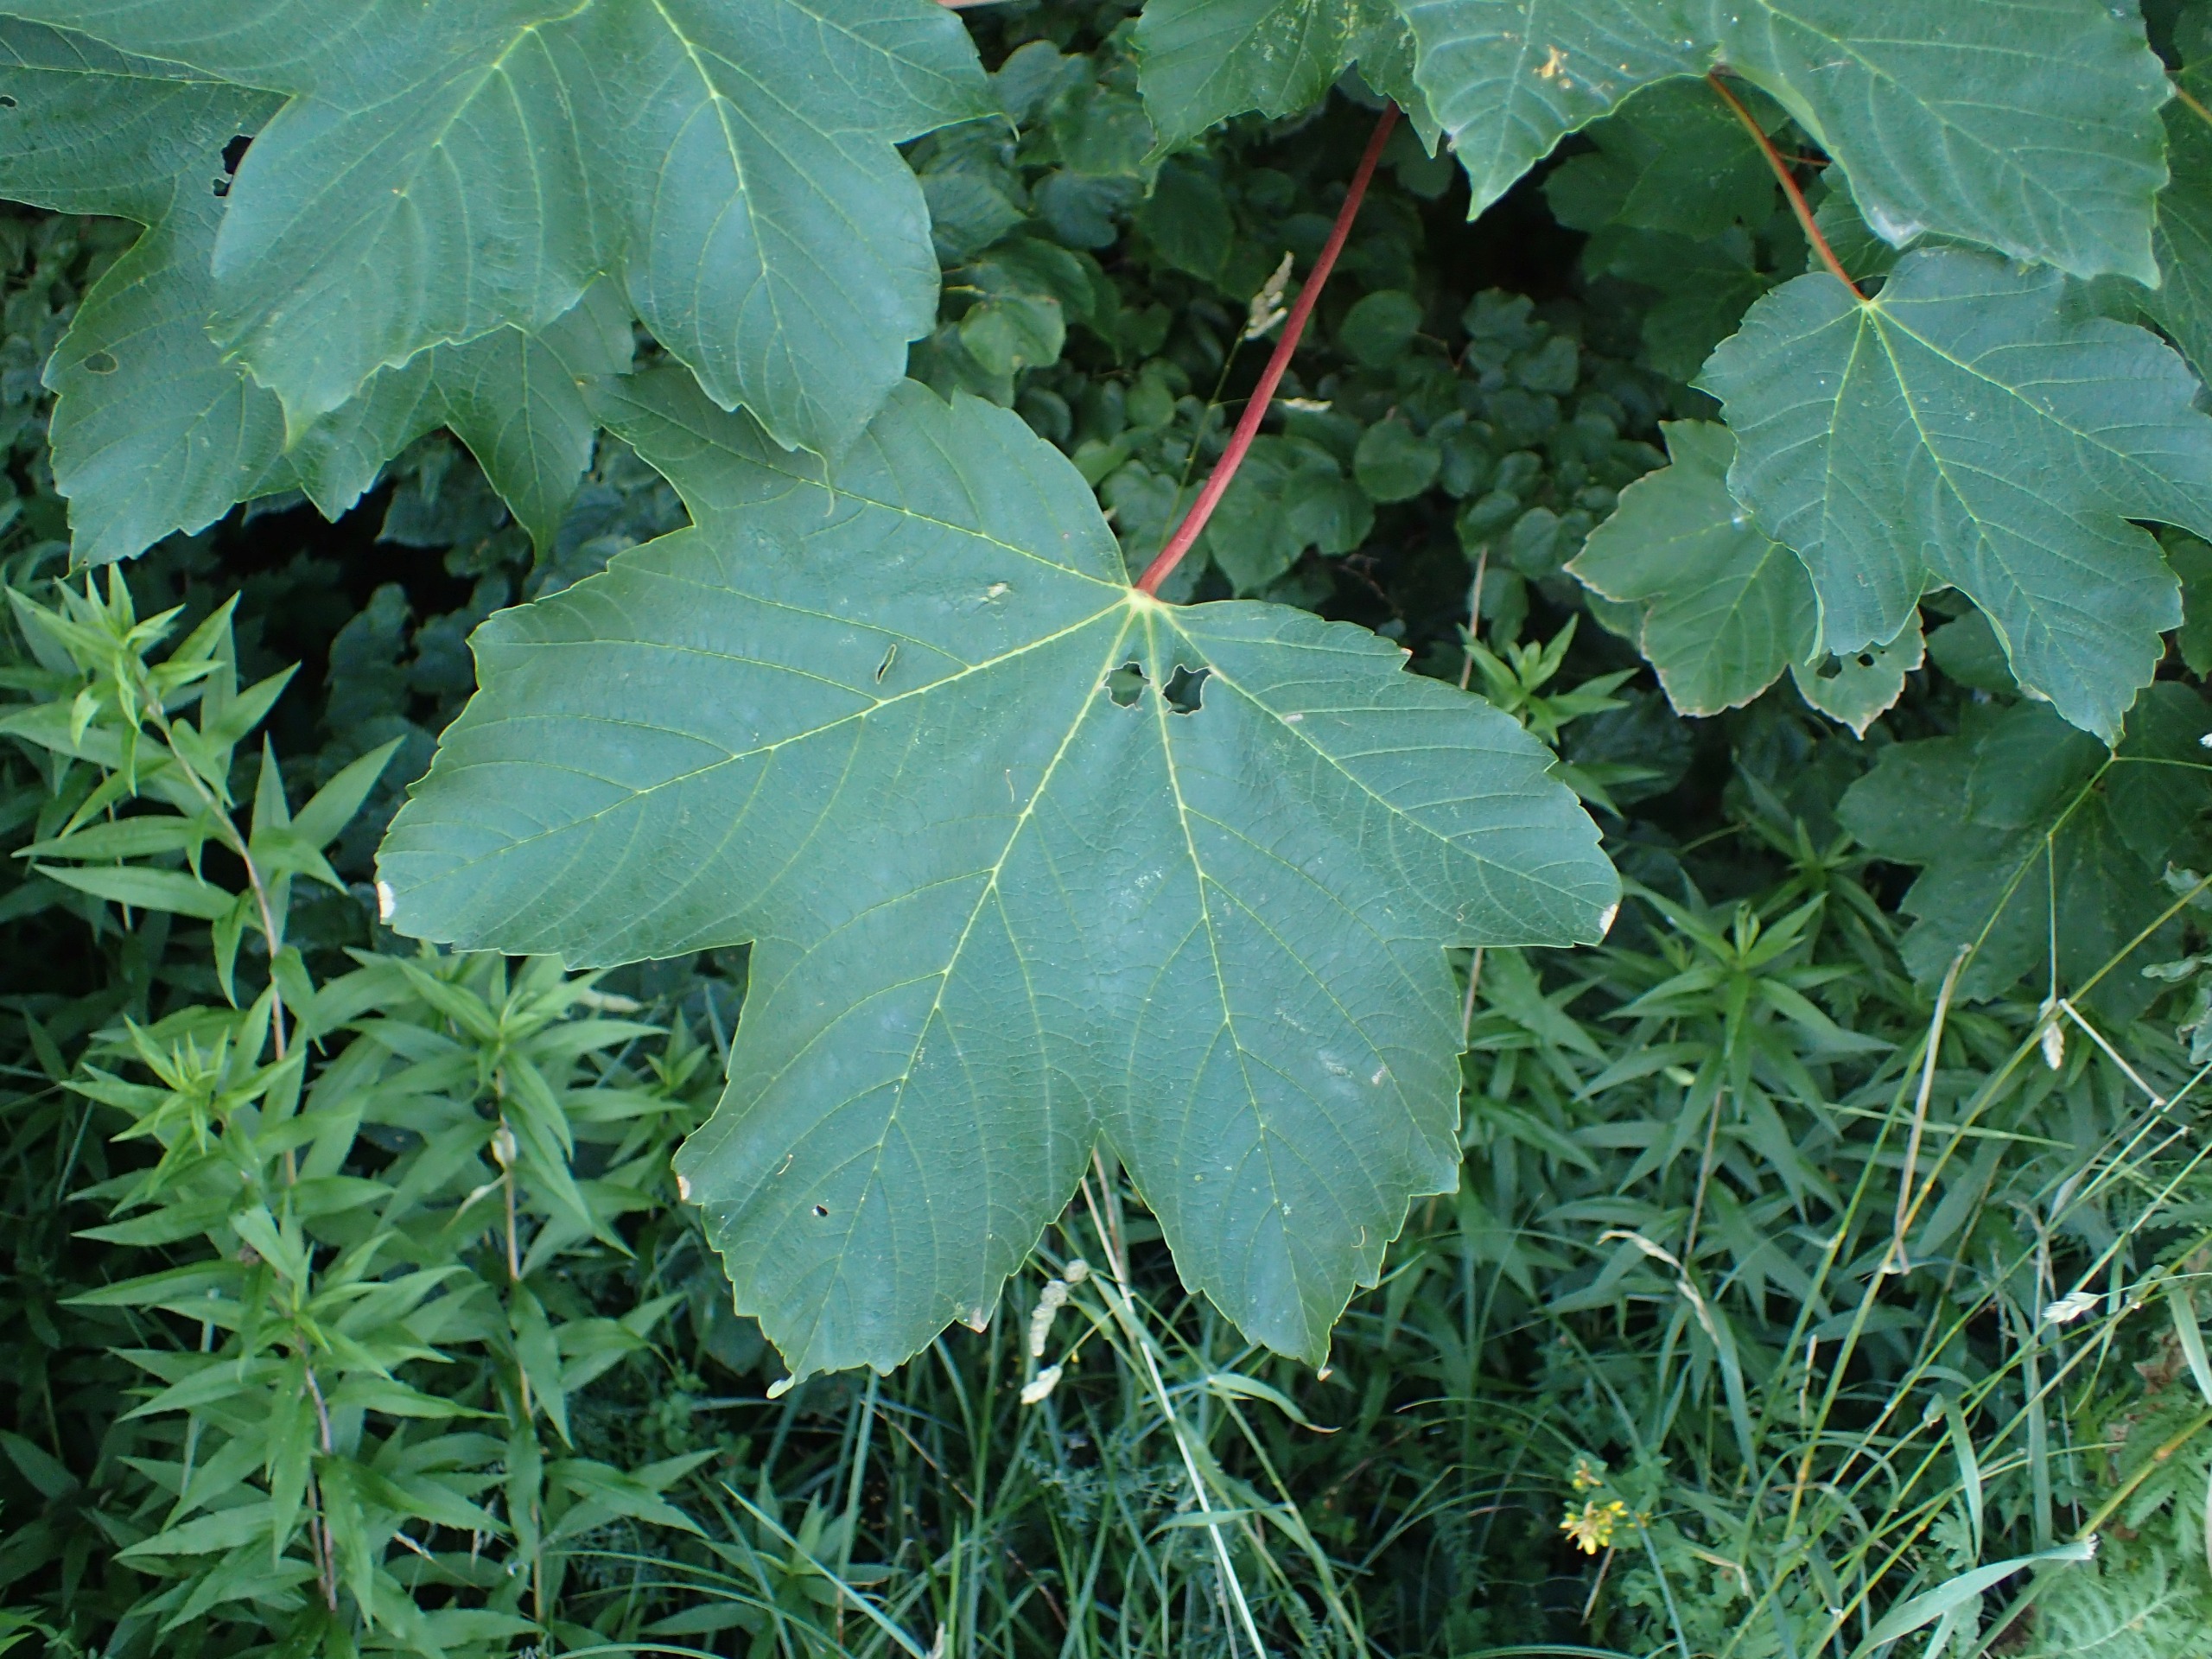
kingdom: Plantae
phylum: Tracheophyta
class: Magnoliopsida
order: Sapindales
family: Sapindaceae
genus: Acer
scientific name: Acer pseudoplatanus
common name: Ahorn
